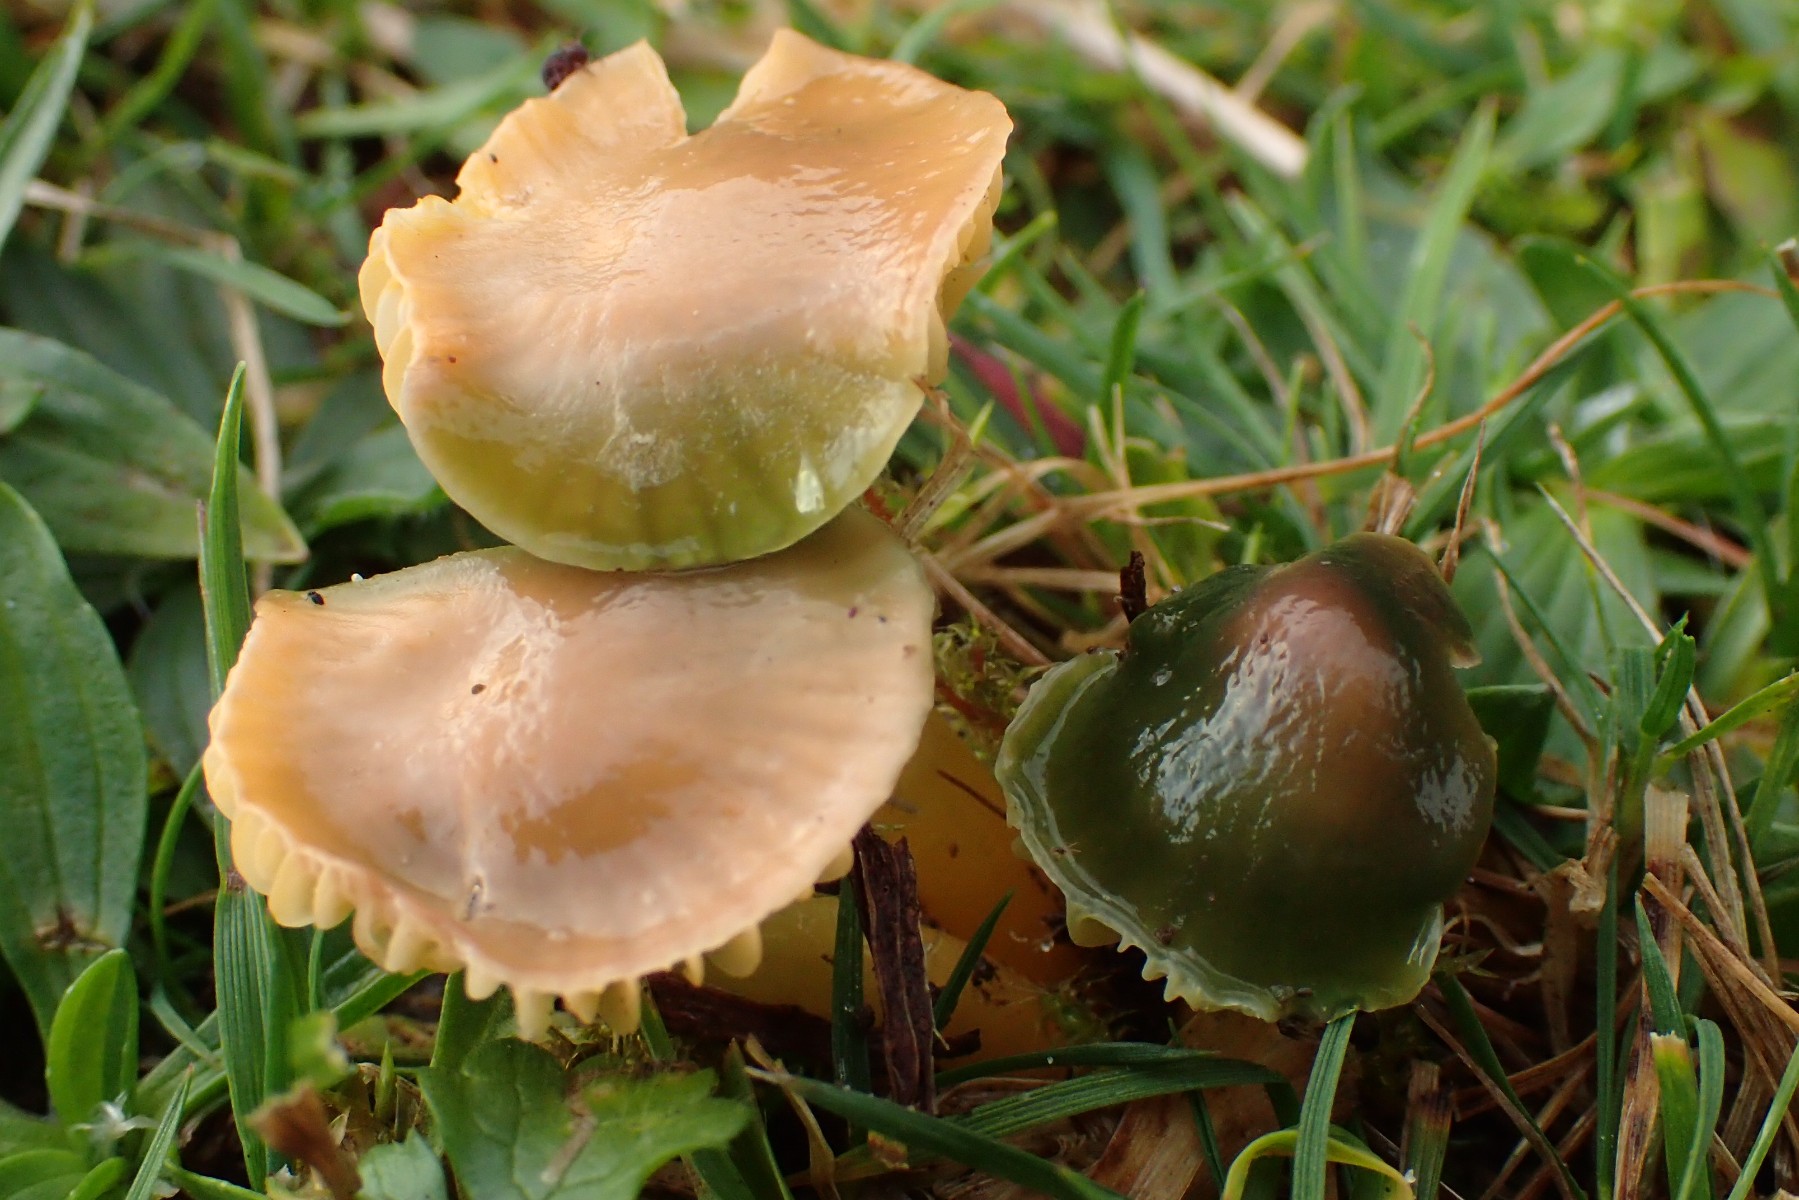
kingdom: Fungi
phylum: Basidiomycota
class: Agaricomycetes
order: Agaricales
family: Hygrophoraceae
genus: Gliophorus
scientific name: Gliophorus psittacinus
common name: papegøje-vokshat
